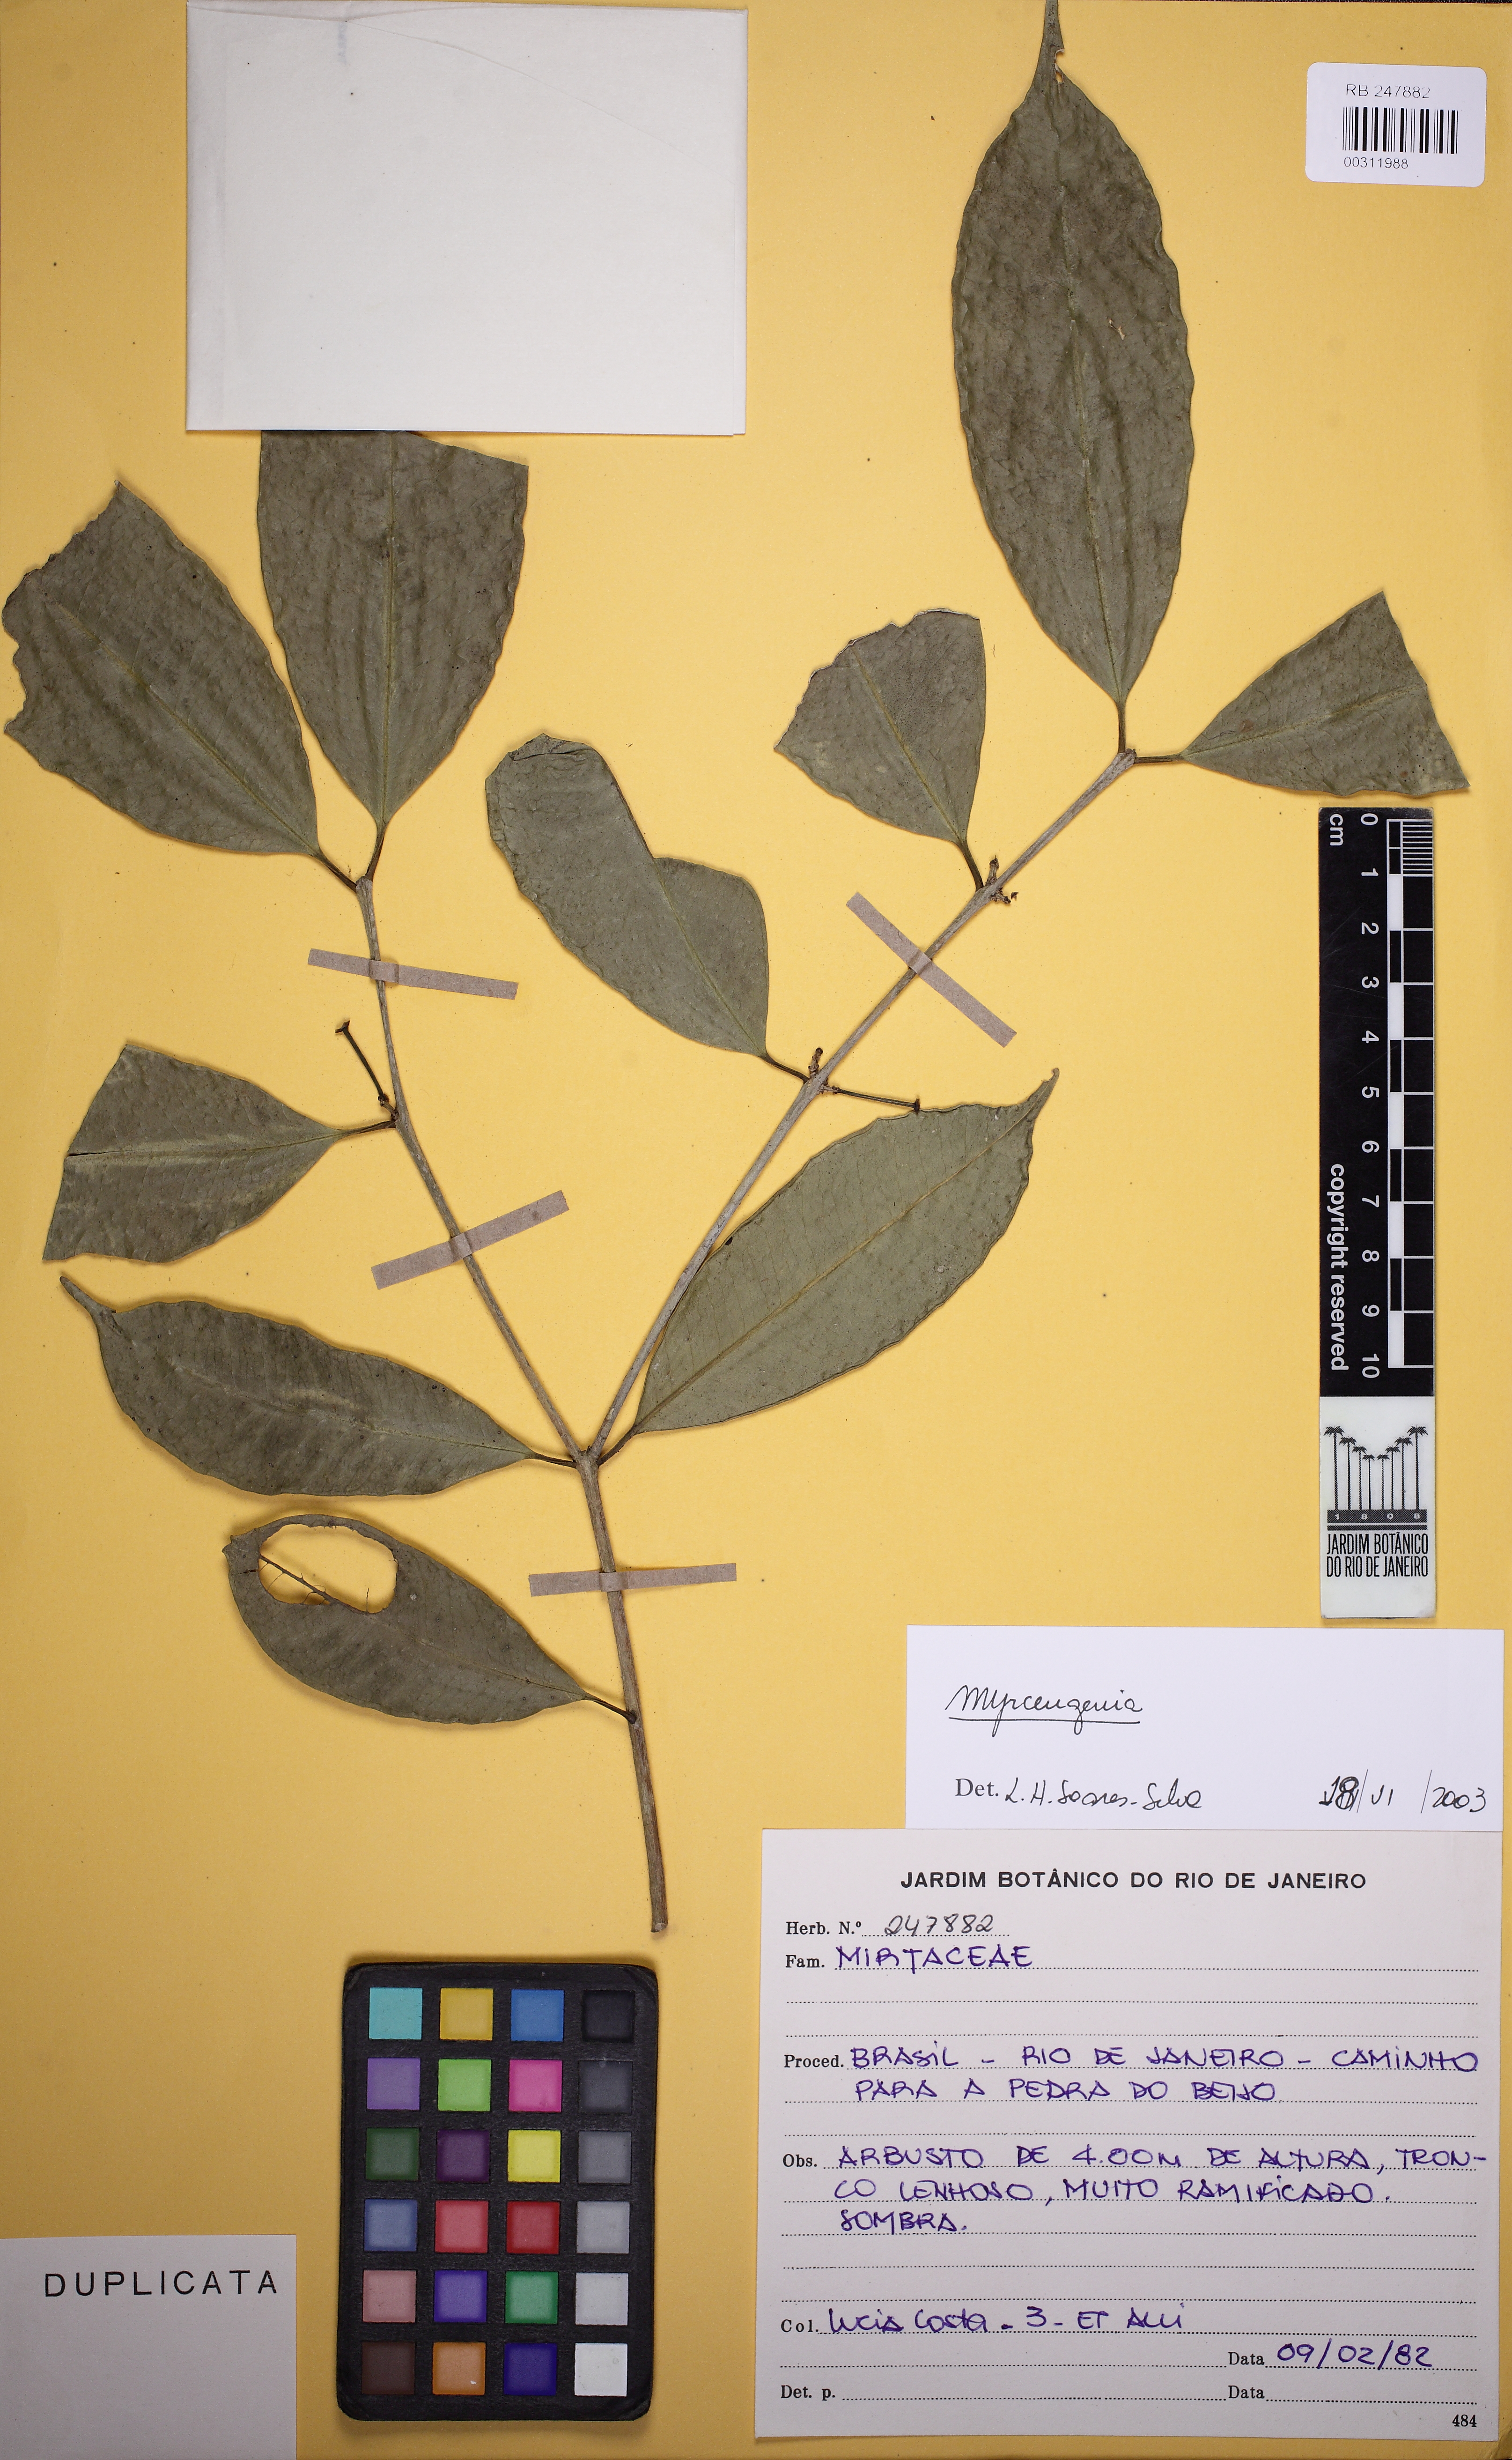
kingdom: Plantae
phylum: Tracheophyta
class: Magnoliopsida
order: Myrtales
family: Myrtaceae
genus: Eugenia
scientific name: Eugenia
